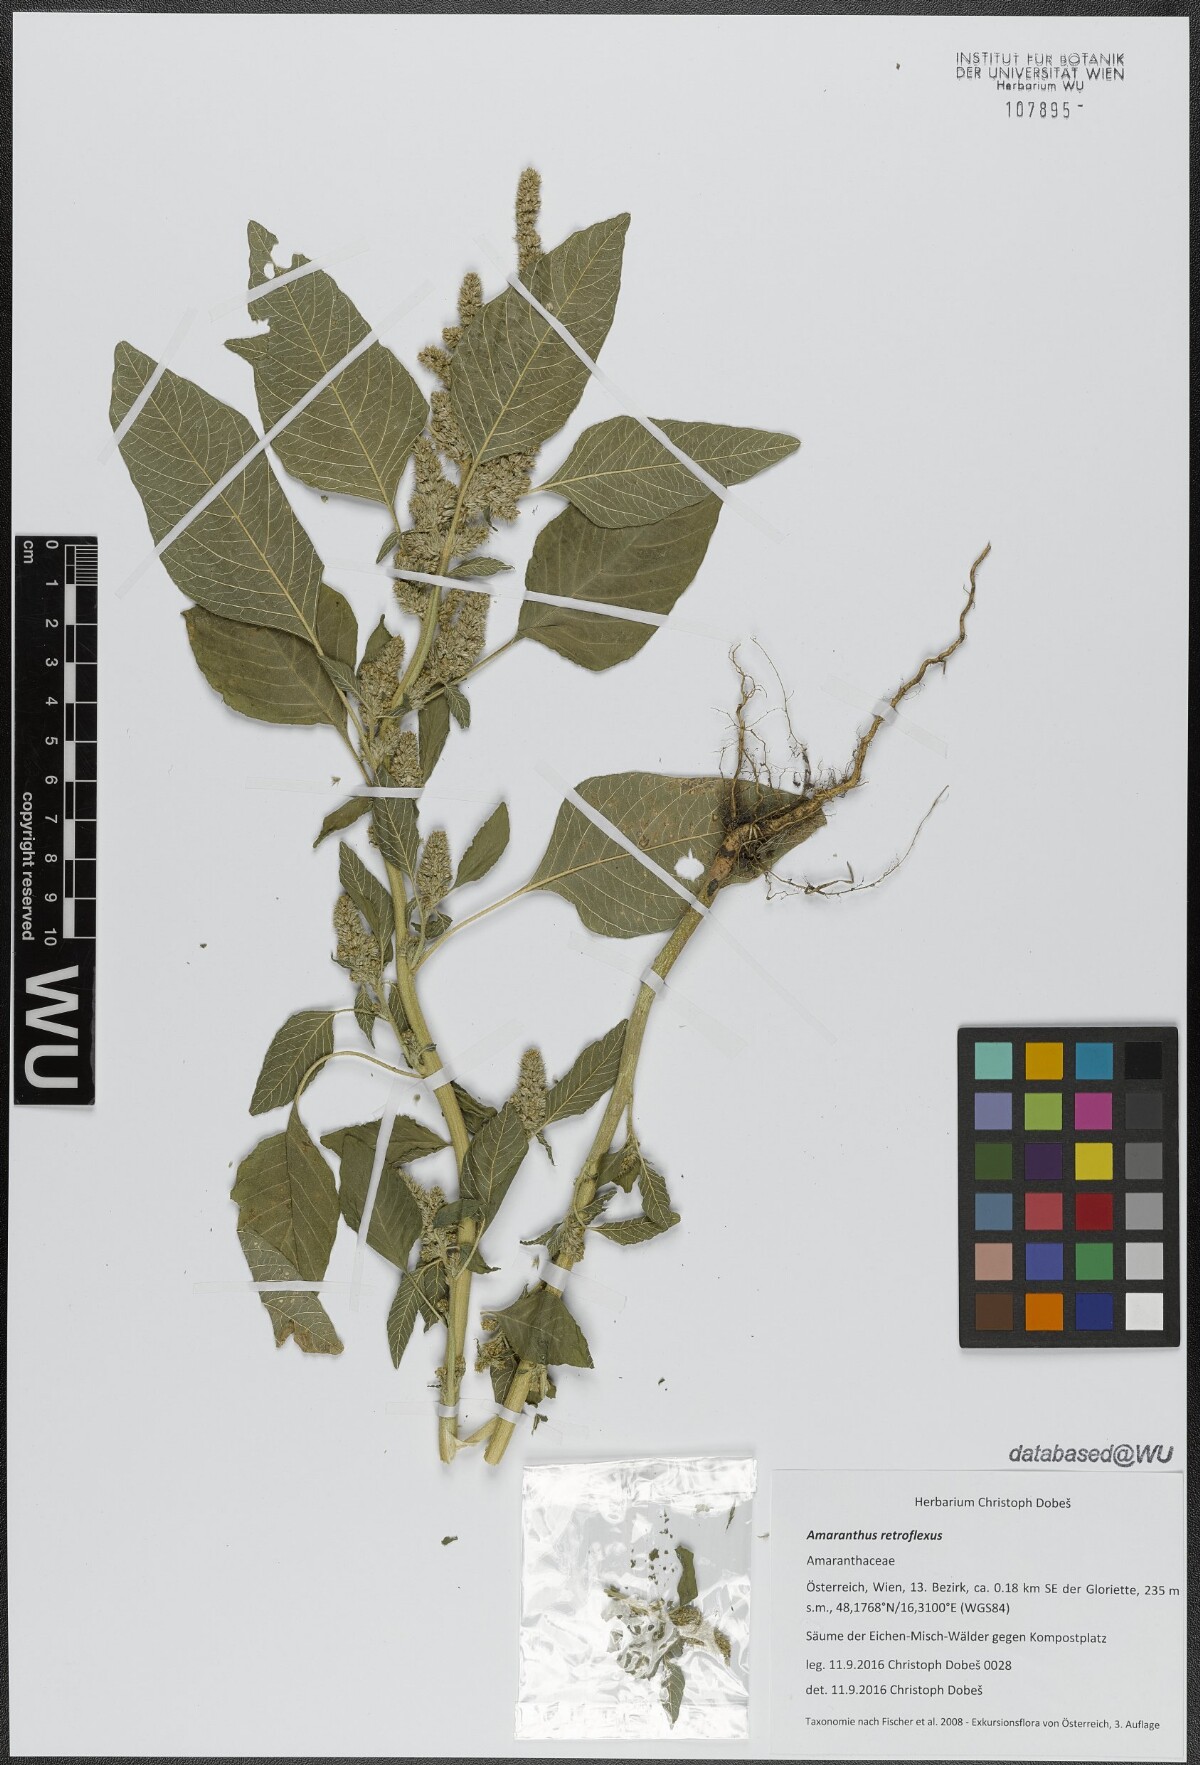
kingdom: Plantae
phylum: Tracheophyta
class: Magnoliopsida
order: Caryophyllales
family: Amaranthaceae
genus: Amaranthus
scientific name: Amaranthus retroflexus
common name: Redroot amaranth
